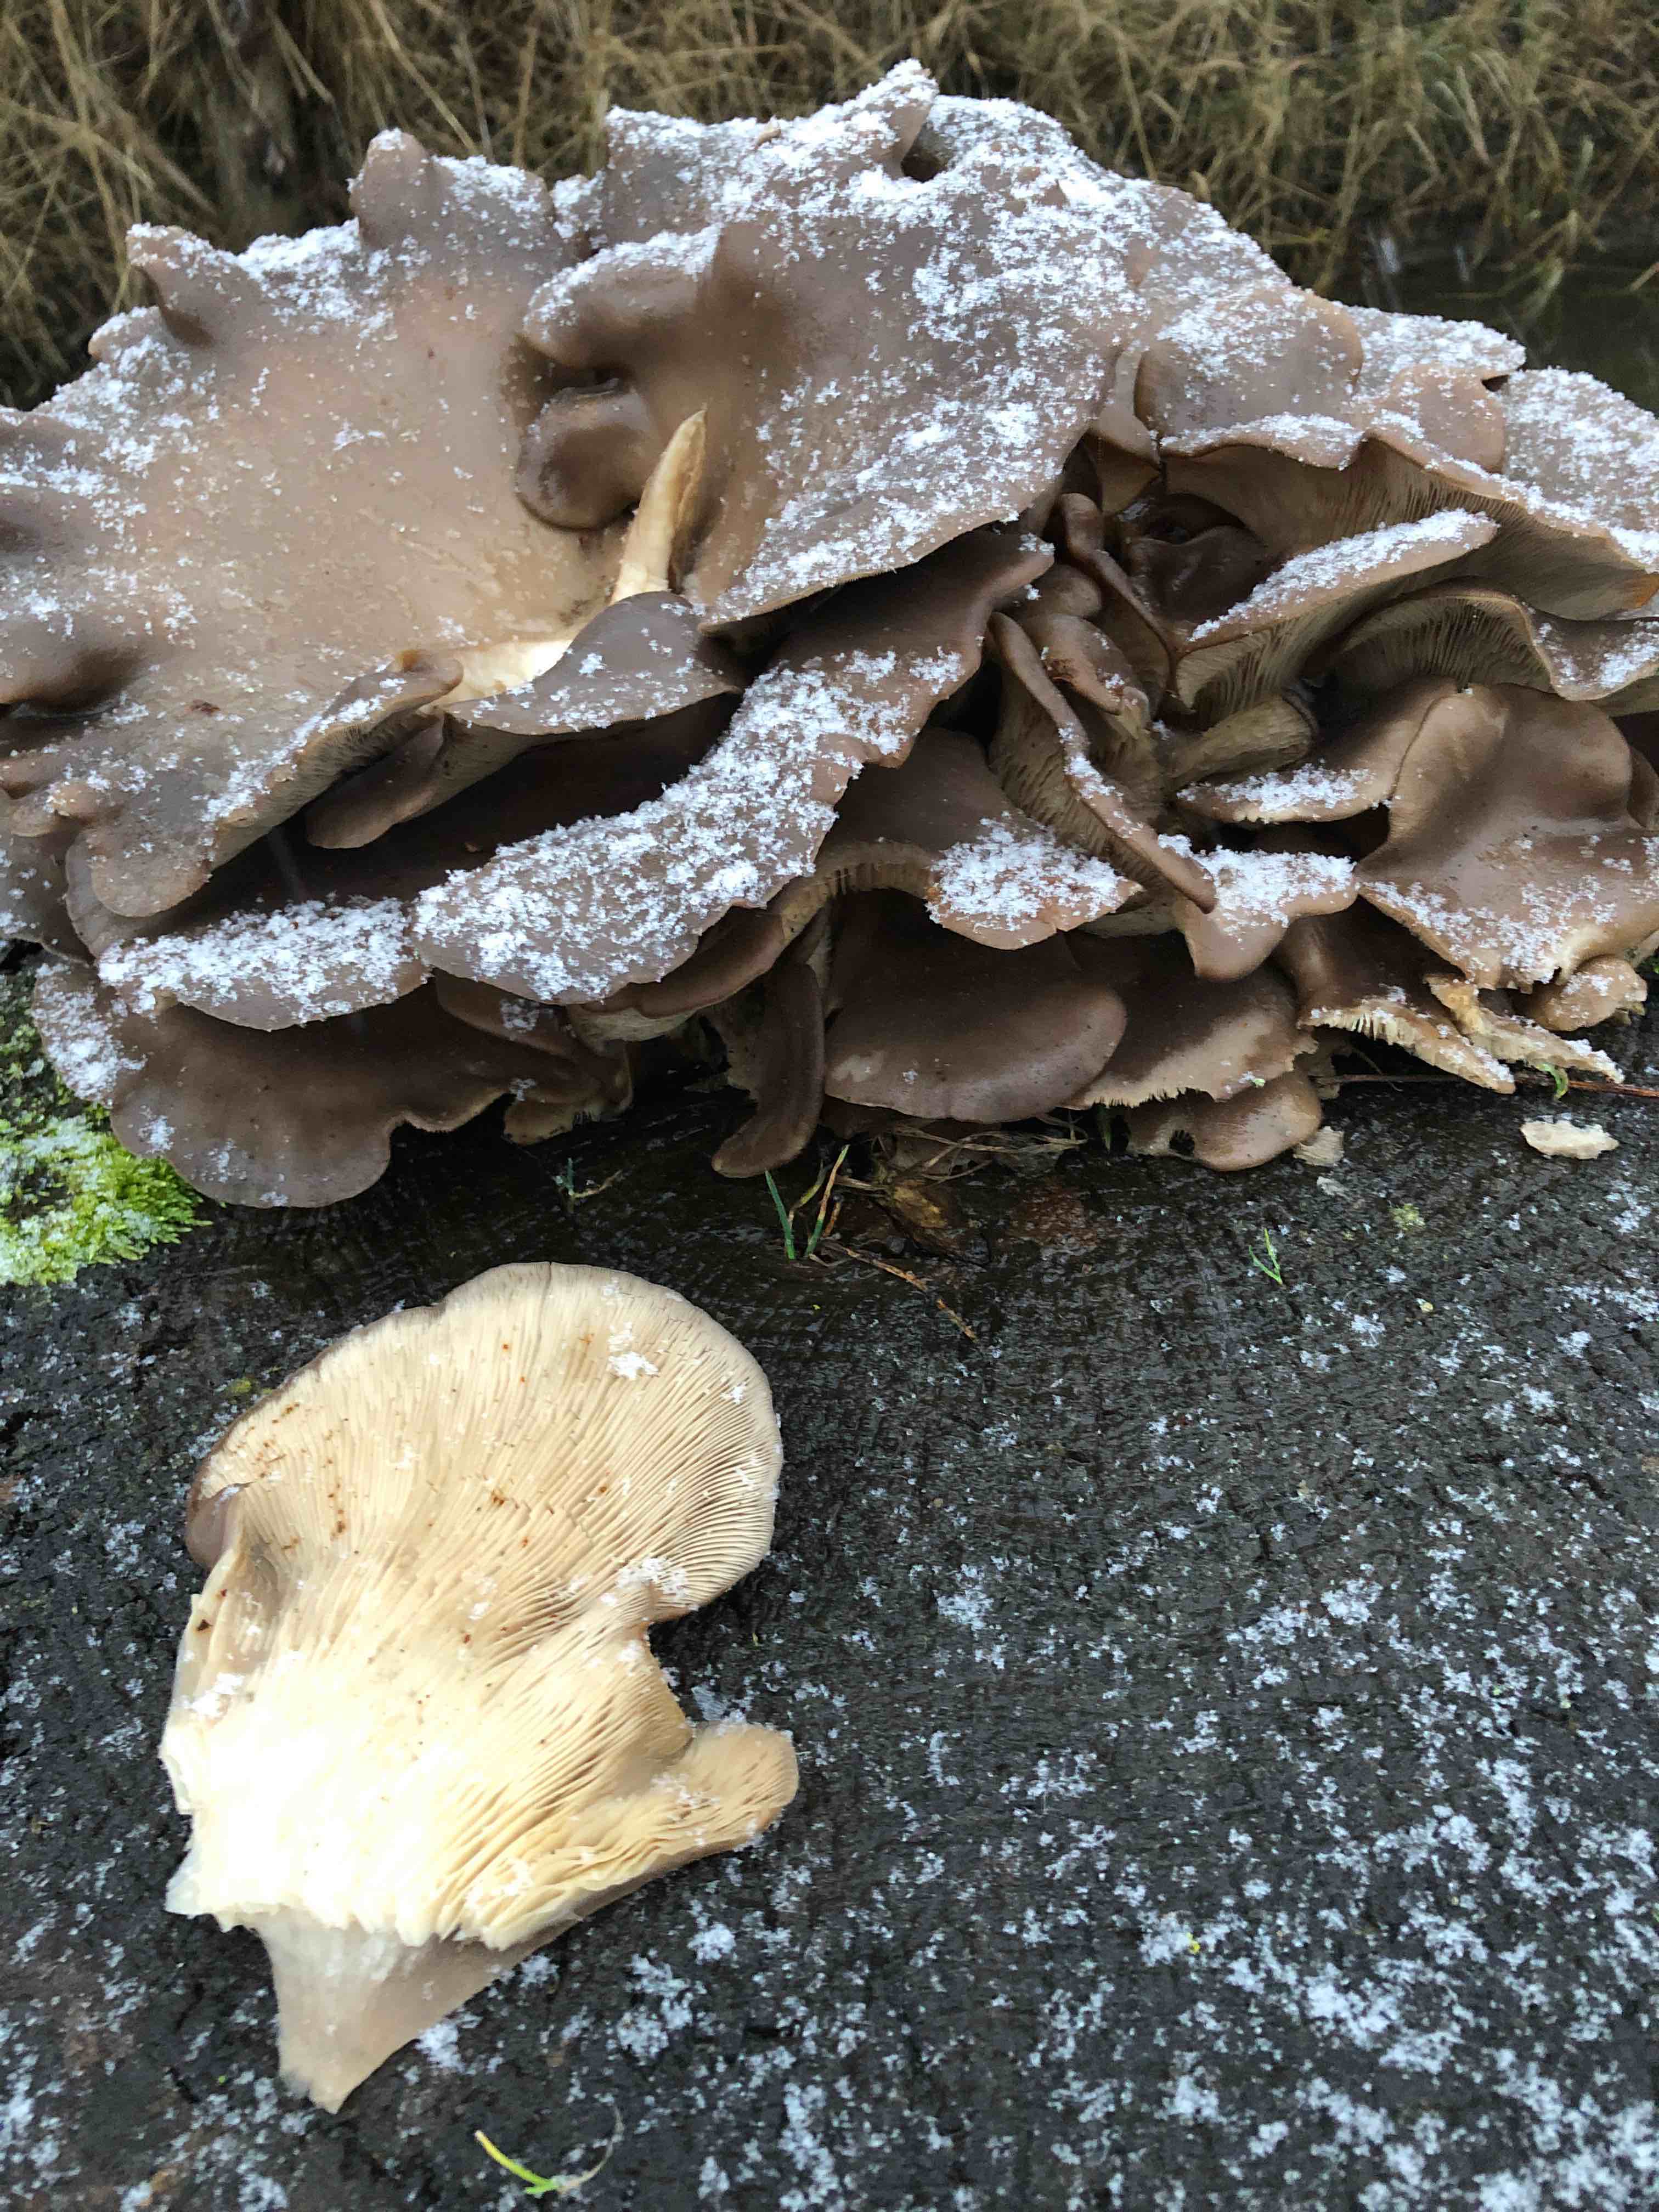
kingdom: Fungi
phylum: Basidiomycota
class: Agaricomycetes
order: Agaricales
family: Pleurotaceae
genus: Pleurotus
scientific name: Pleurotus ostreatus
